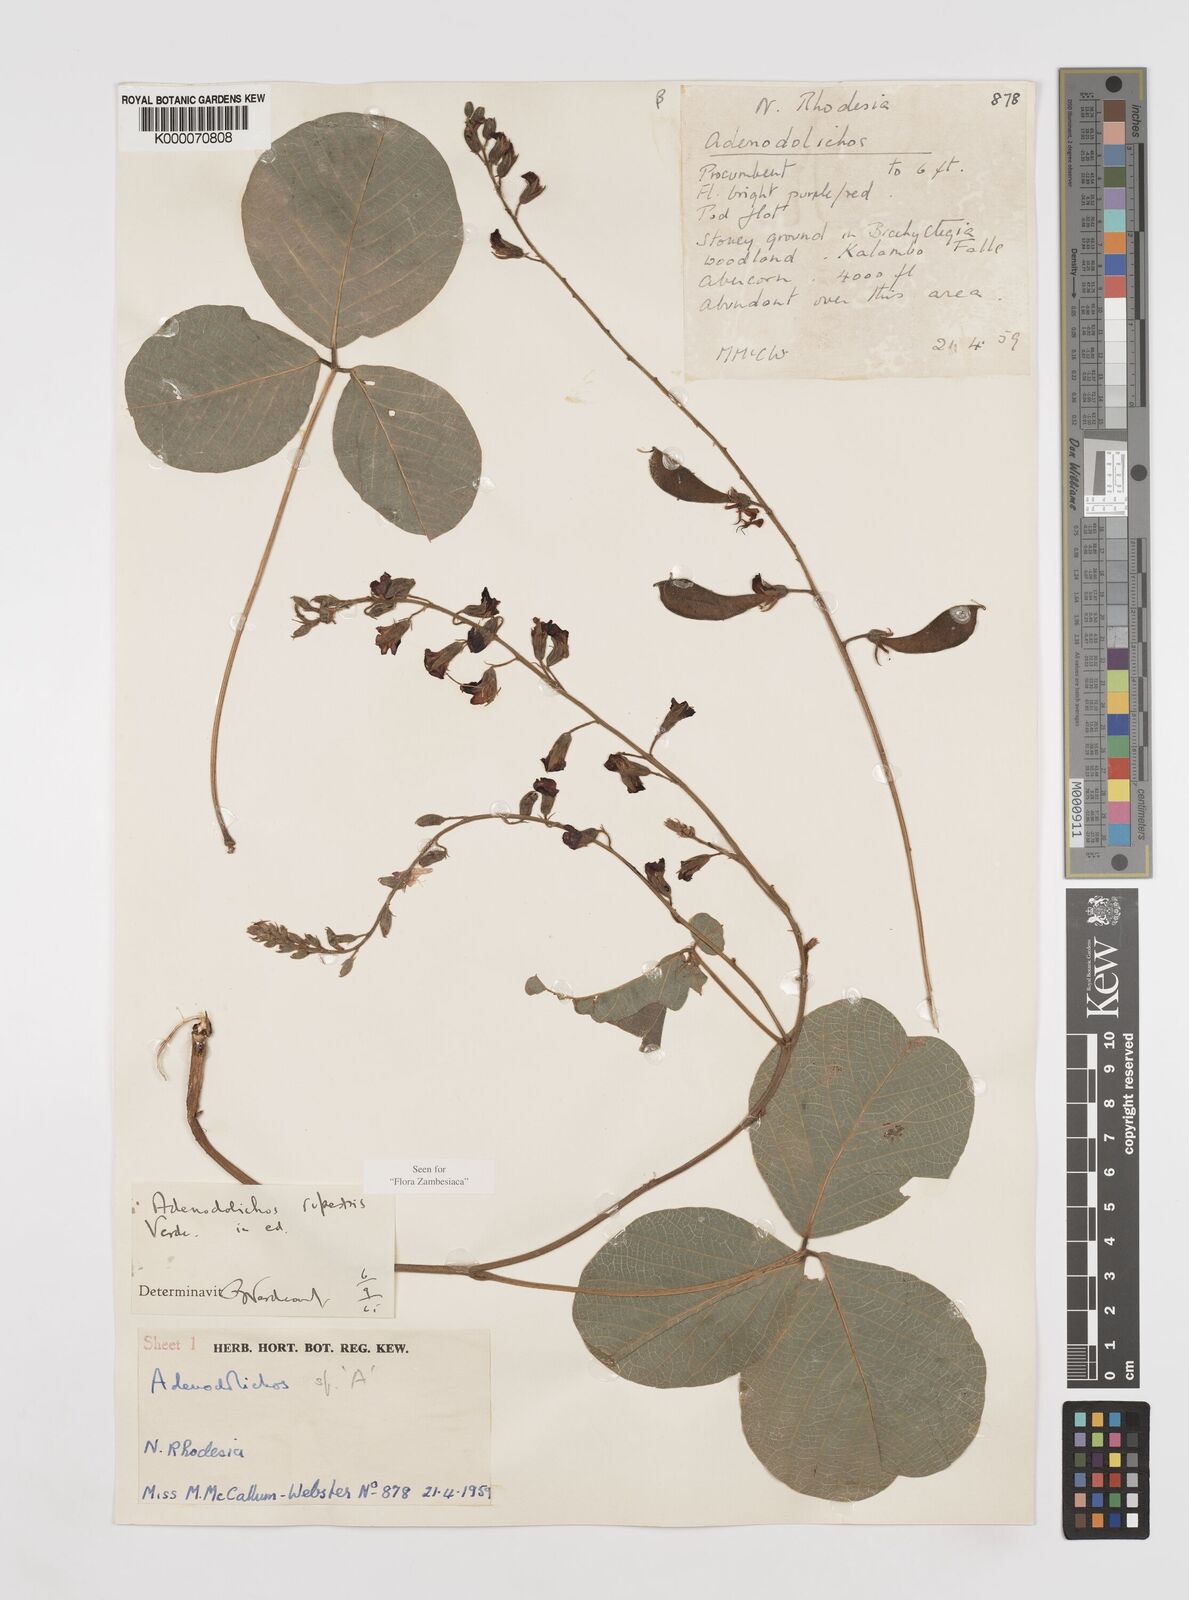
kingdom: Plantae
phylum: Tracheophyta
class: Magnoliopsida
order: Fabales
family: Fabaceae
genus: Adenodolichos
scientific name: Adenodolichos rupestris
